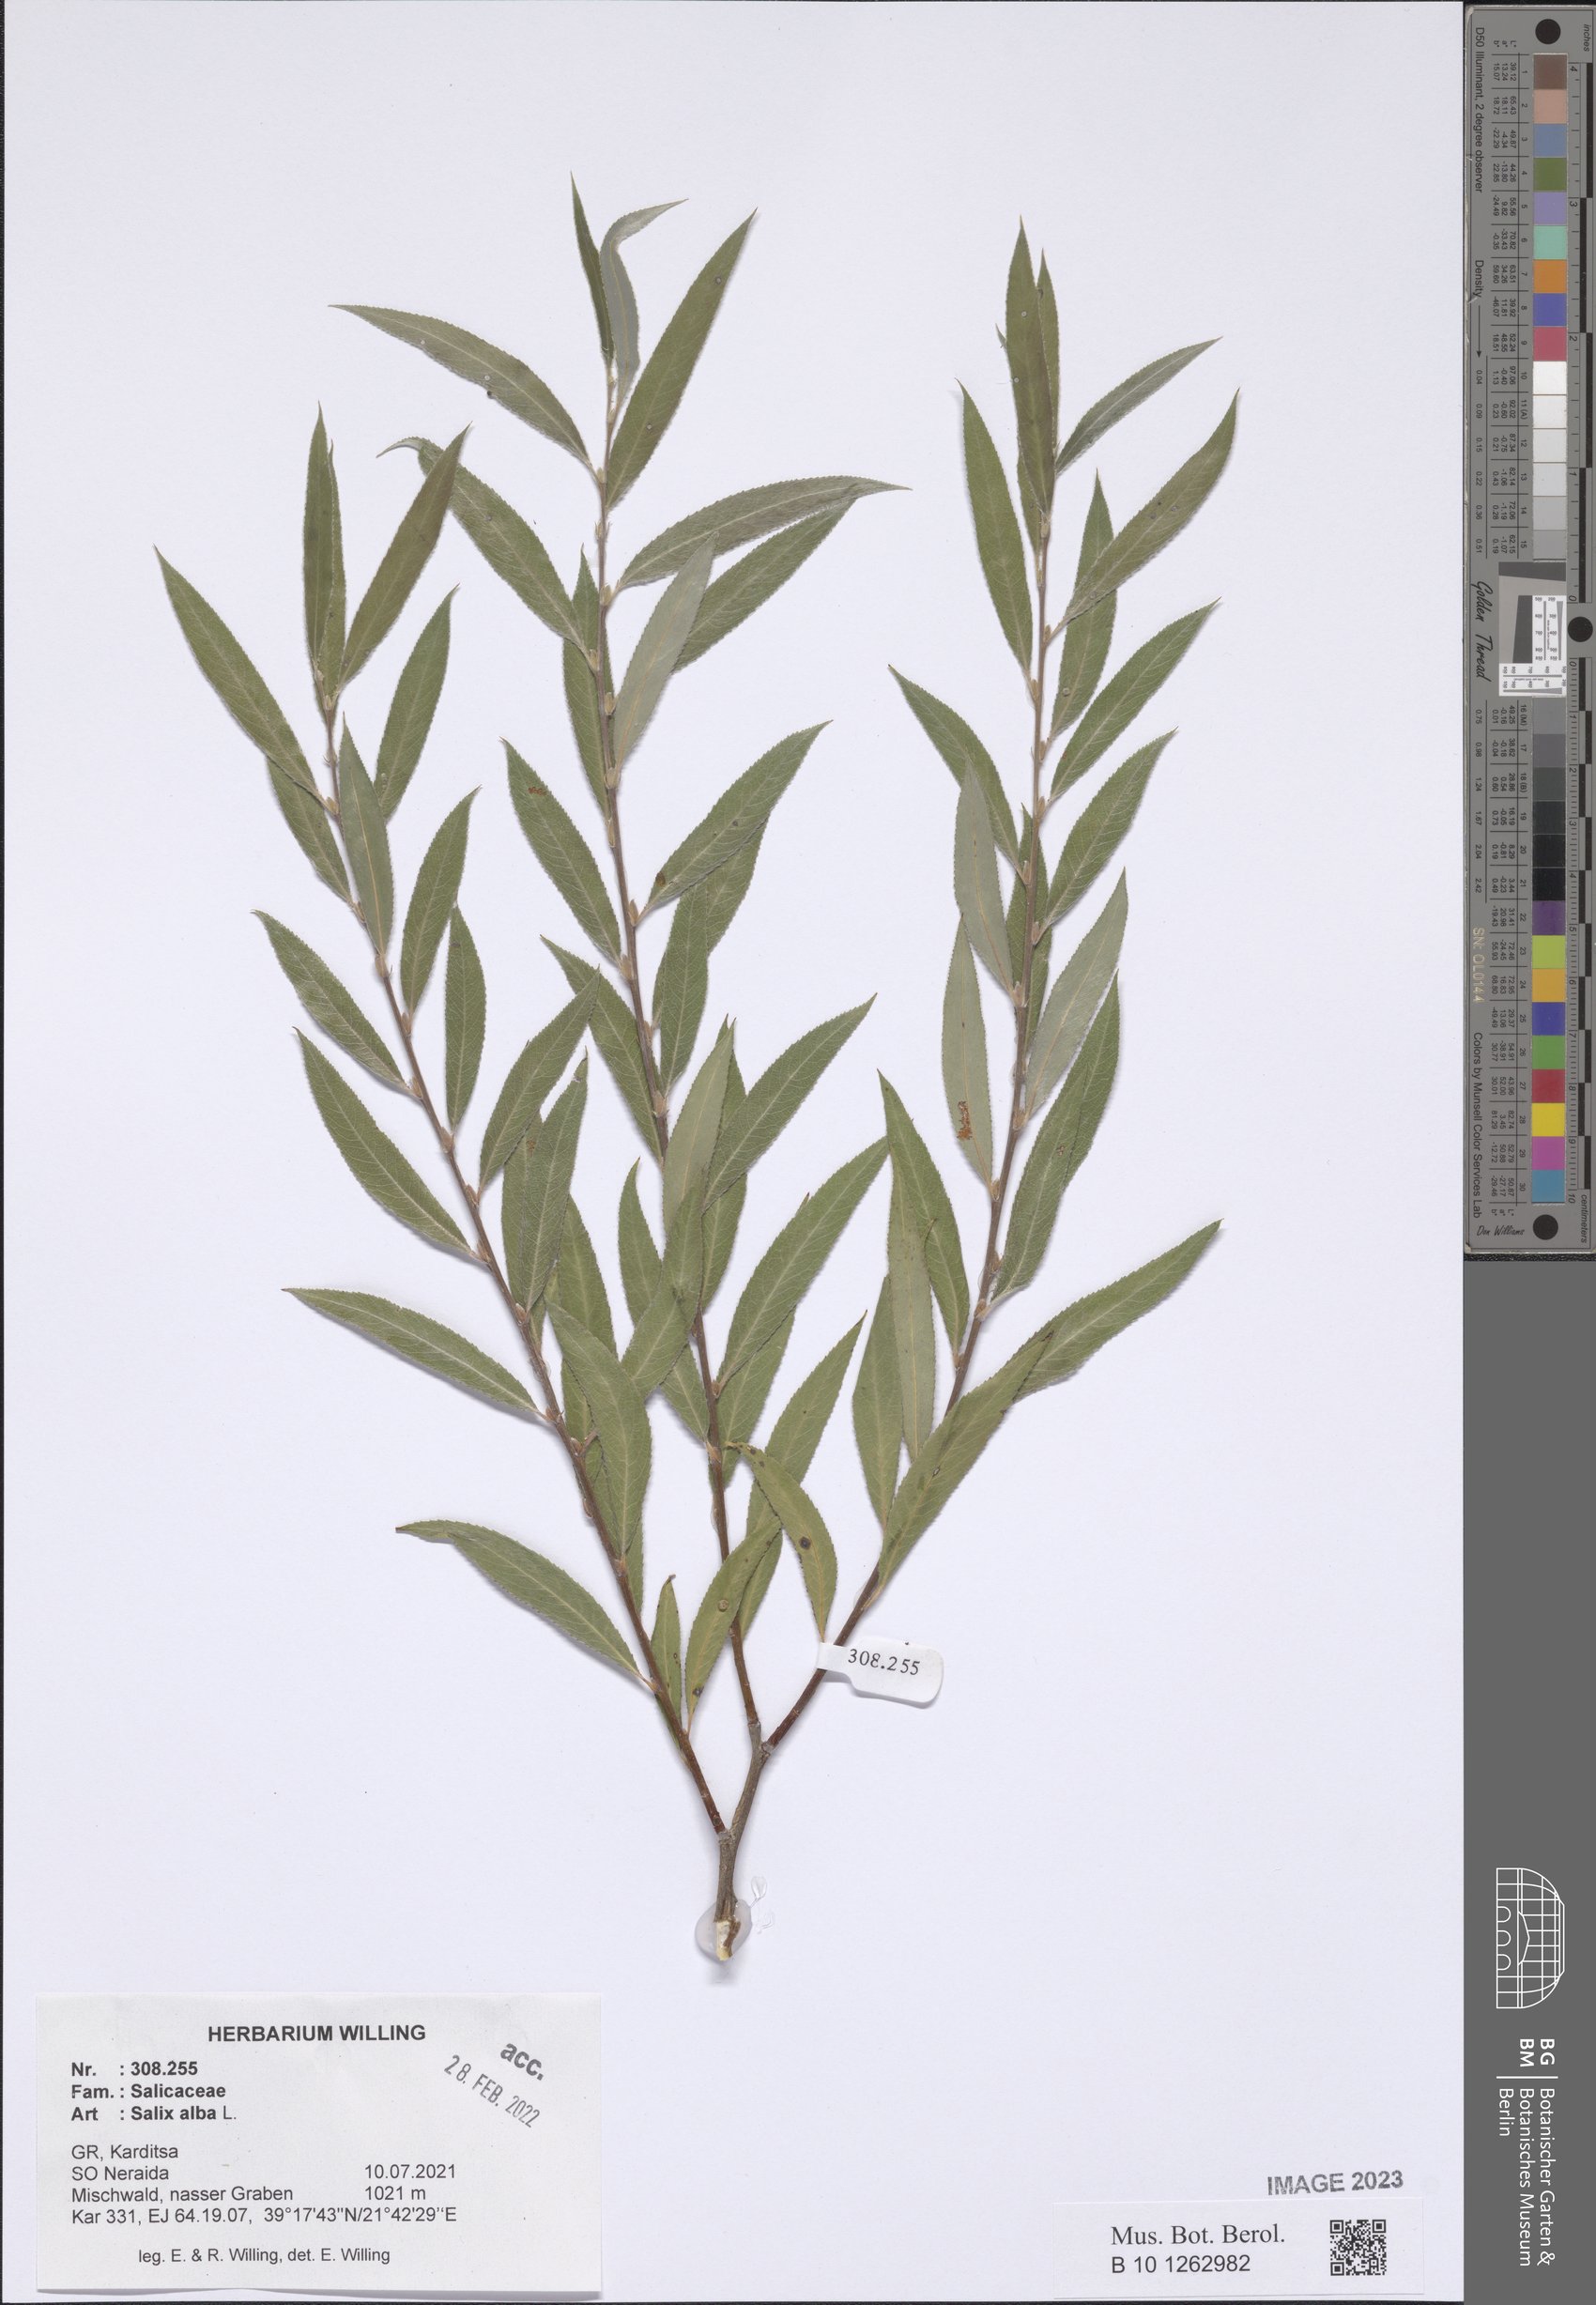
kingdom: Plantae
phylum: Tracheophyta
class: Magnoliopsida
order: Malpighiales
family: Salicaceae
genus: Salix
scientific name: Salix alba
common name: White willow
